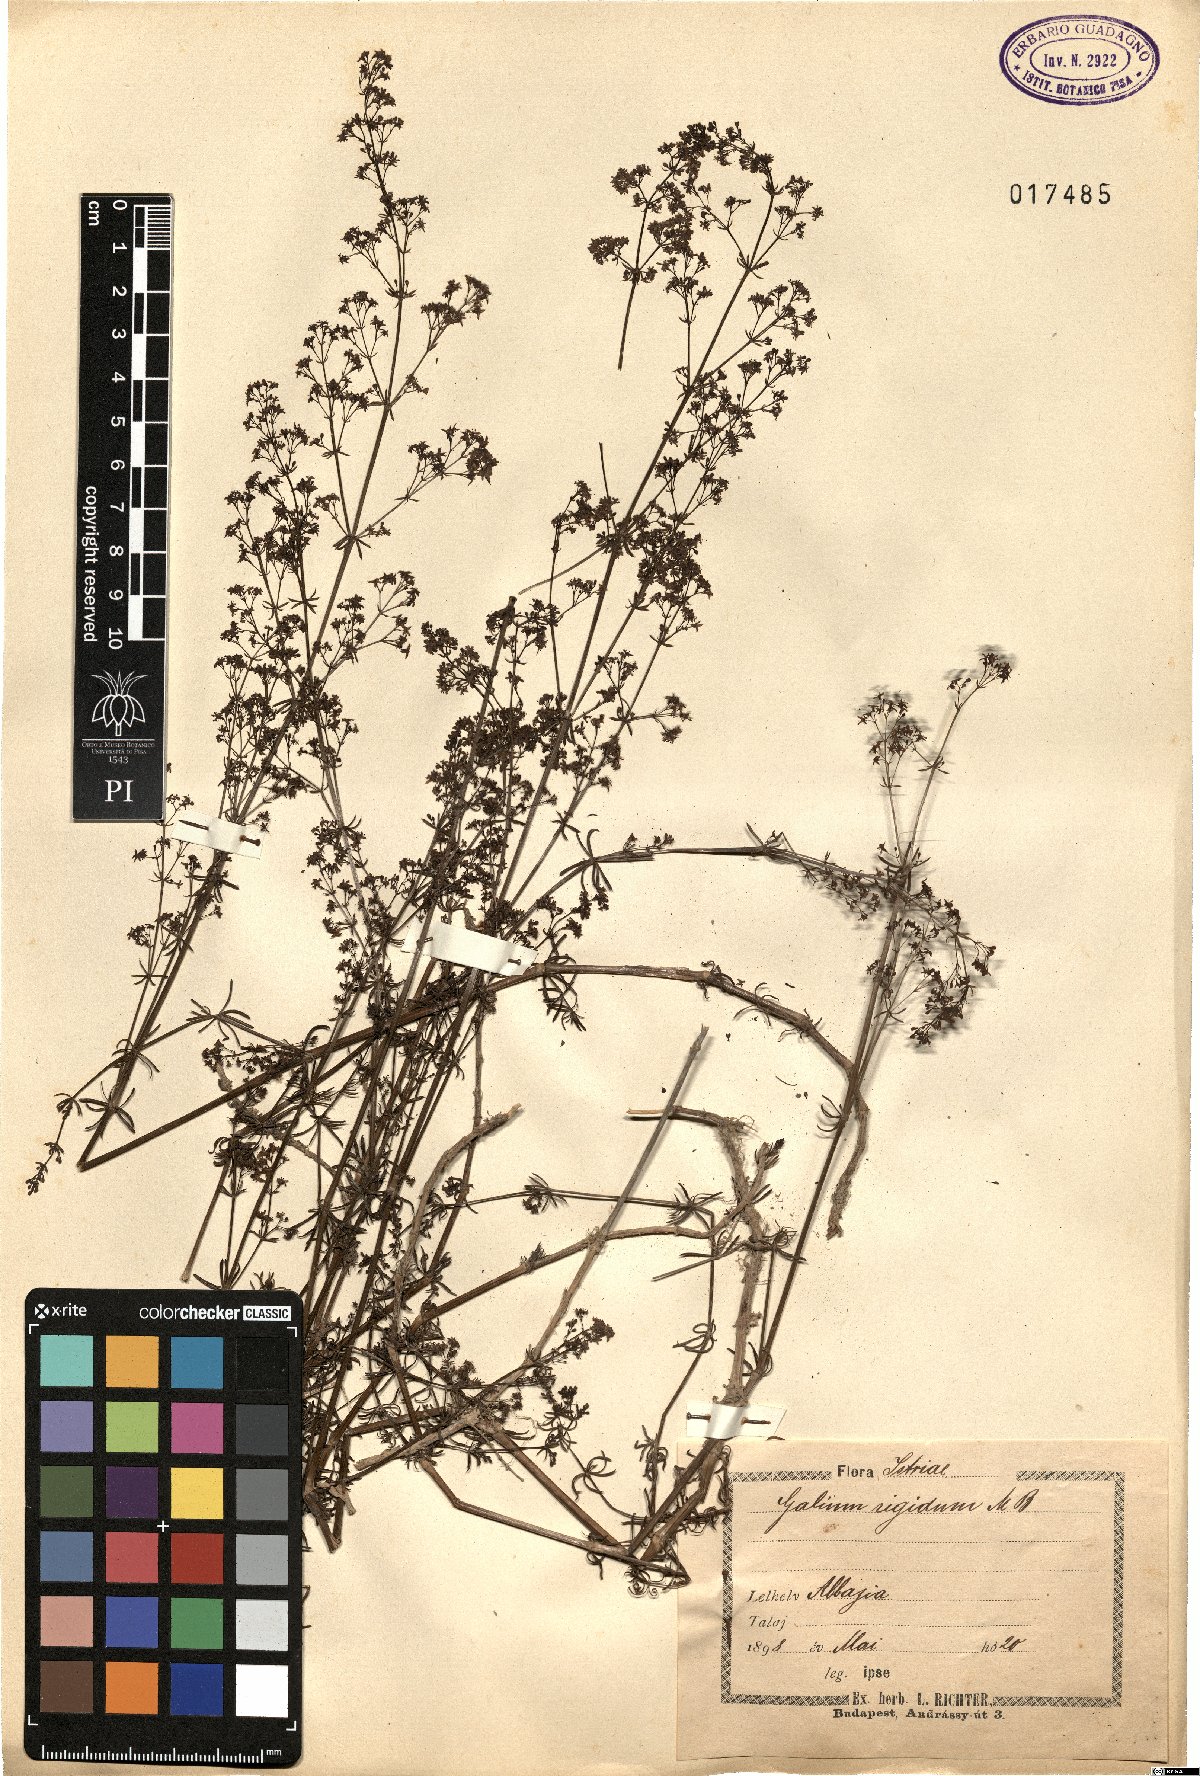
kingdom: Plantae
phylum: Tracheophyta
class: Magnoliopsida
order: Gentianales
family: Rubiaceae
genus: Galium
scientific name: Galium lucidum
